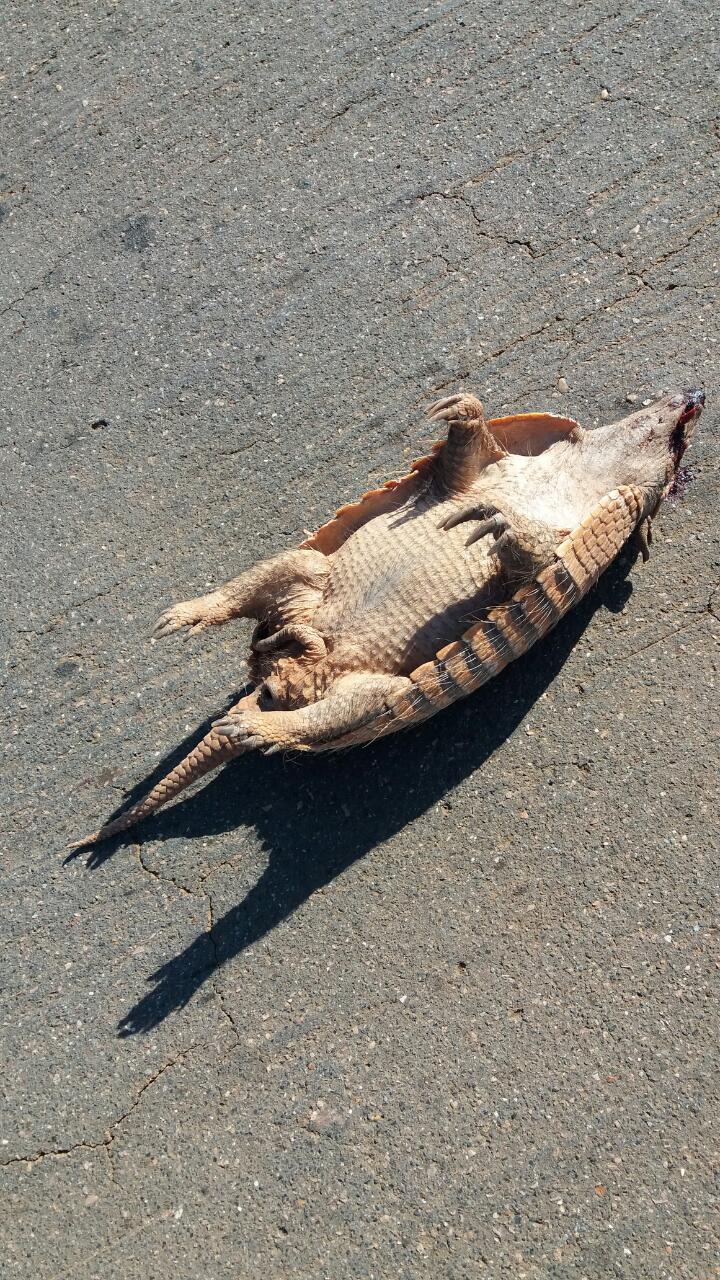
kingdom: Animalia
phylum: Chordata
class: Mammalia
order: Cingulata
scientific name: Cingulata
